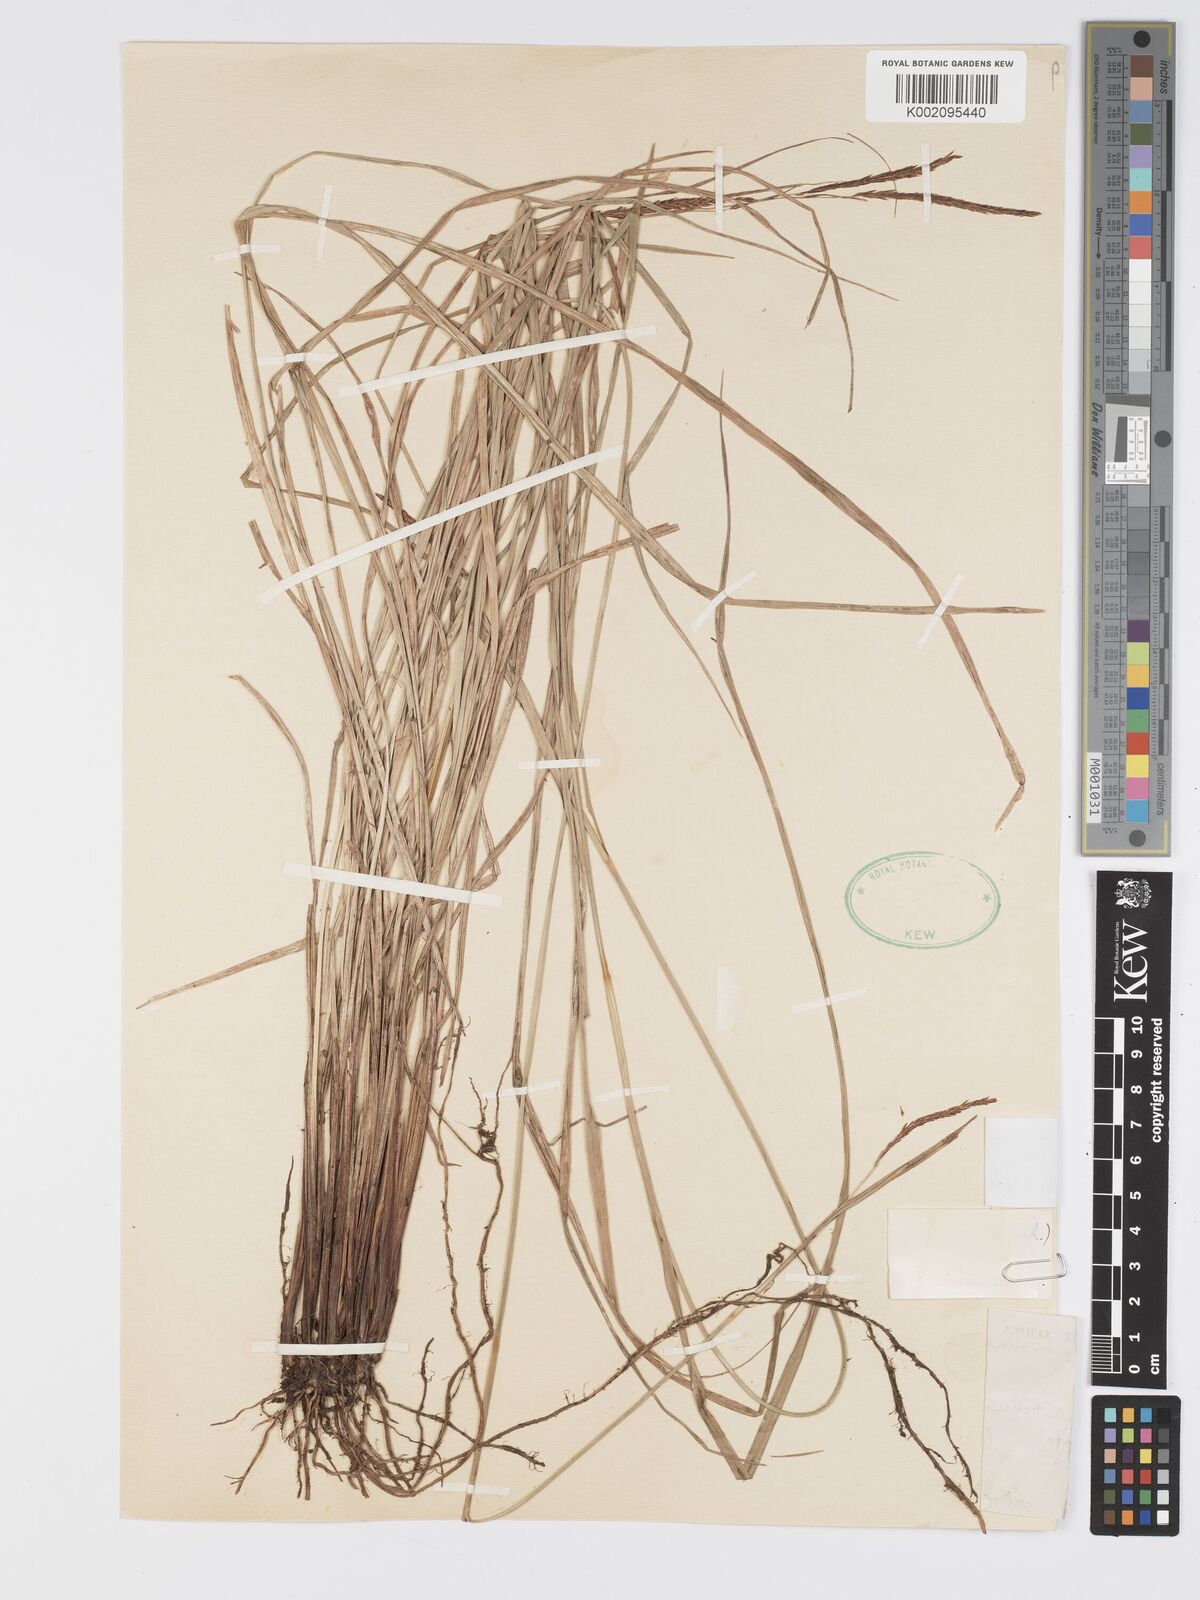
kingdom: Plantae
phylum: Tracheophyta
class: Liliopsida
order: Poales
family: Cyperaceae
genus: Carex
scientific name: Carex mannii
